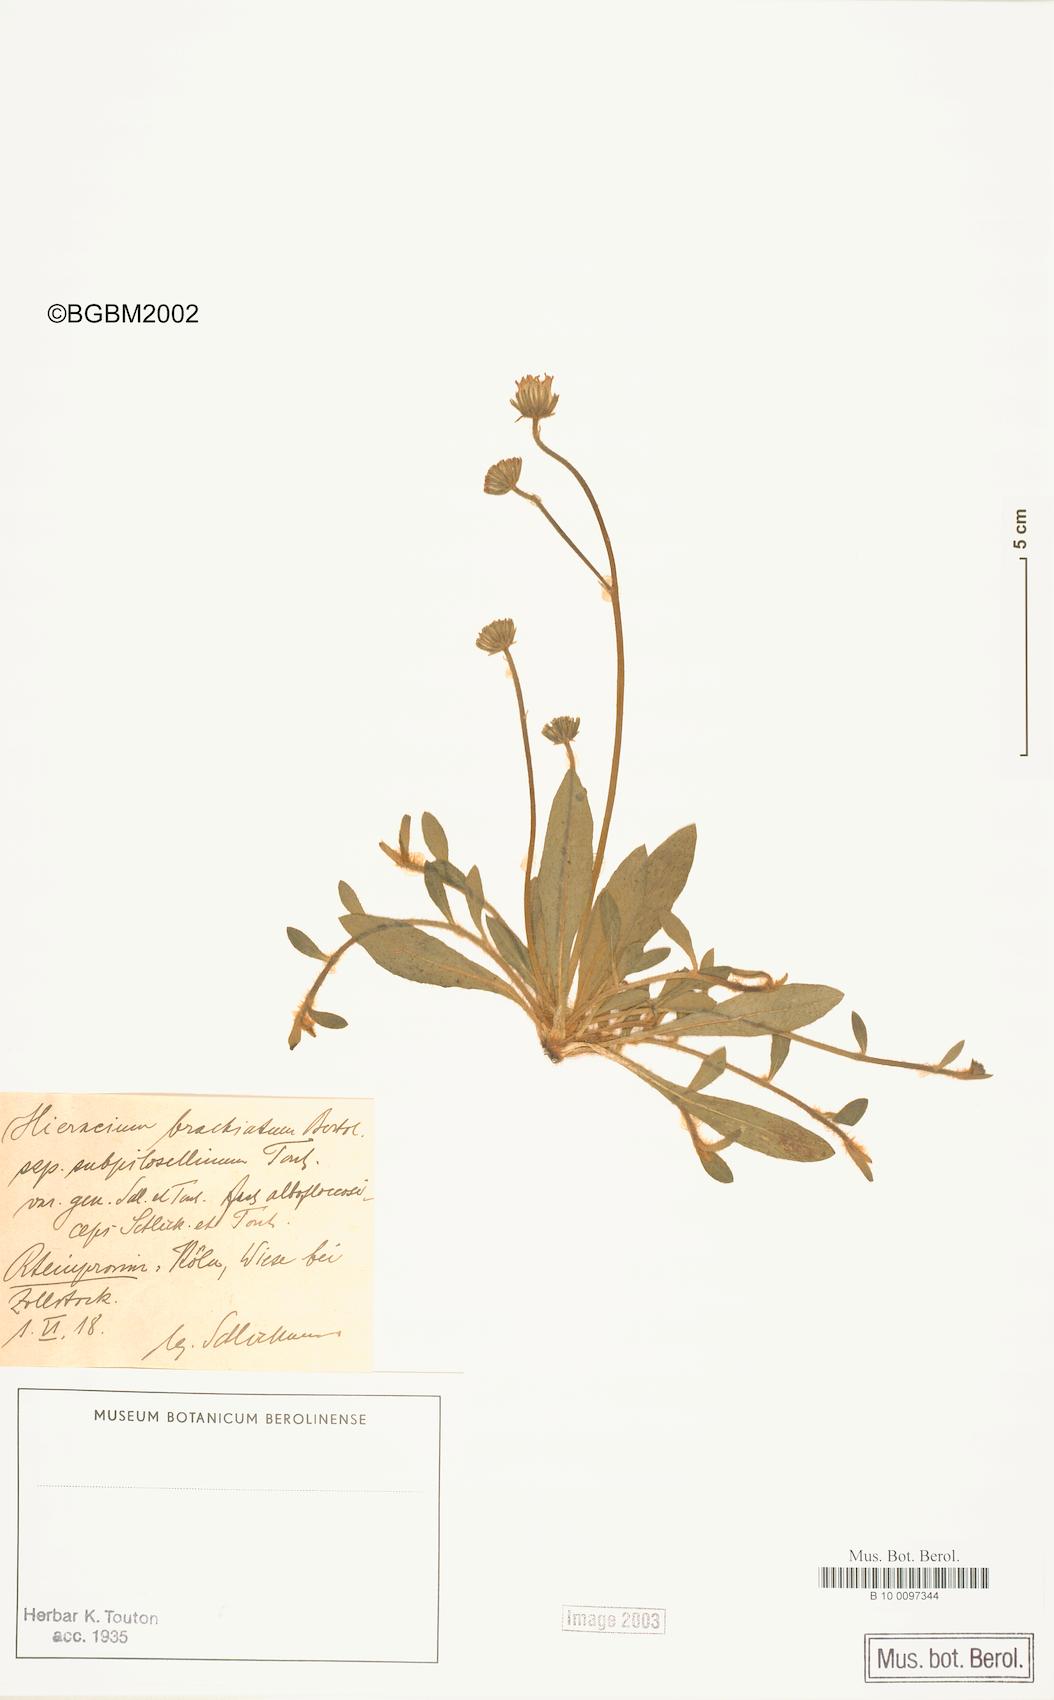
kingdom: Plantae
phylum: Tracheophyta
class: Magnoliopsida
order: Asterales
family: Asteraceae
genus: Pilosella
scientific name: Pilosella acutifolia
